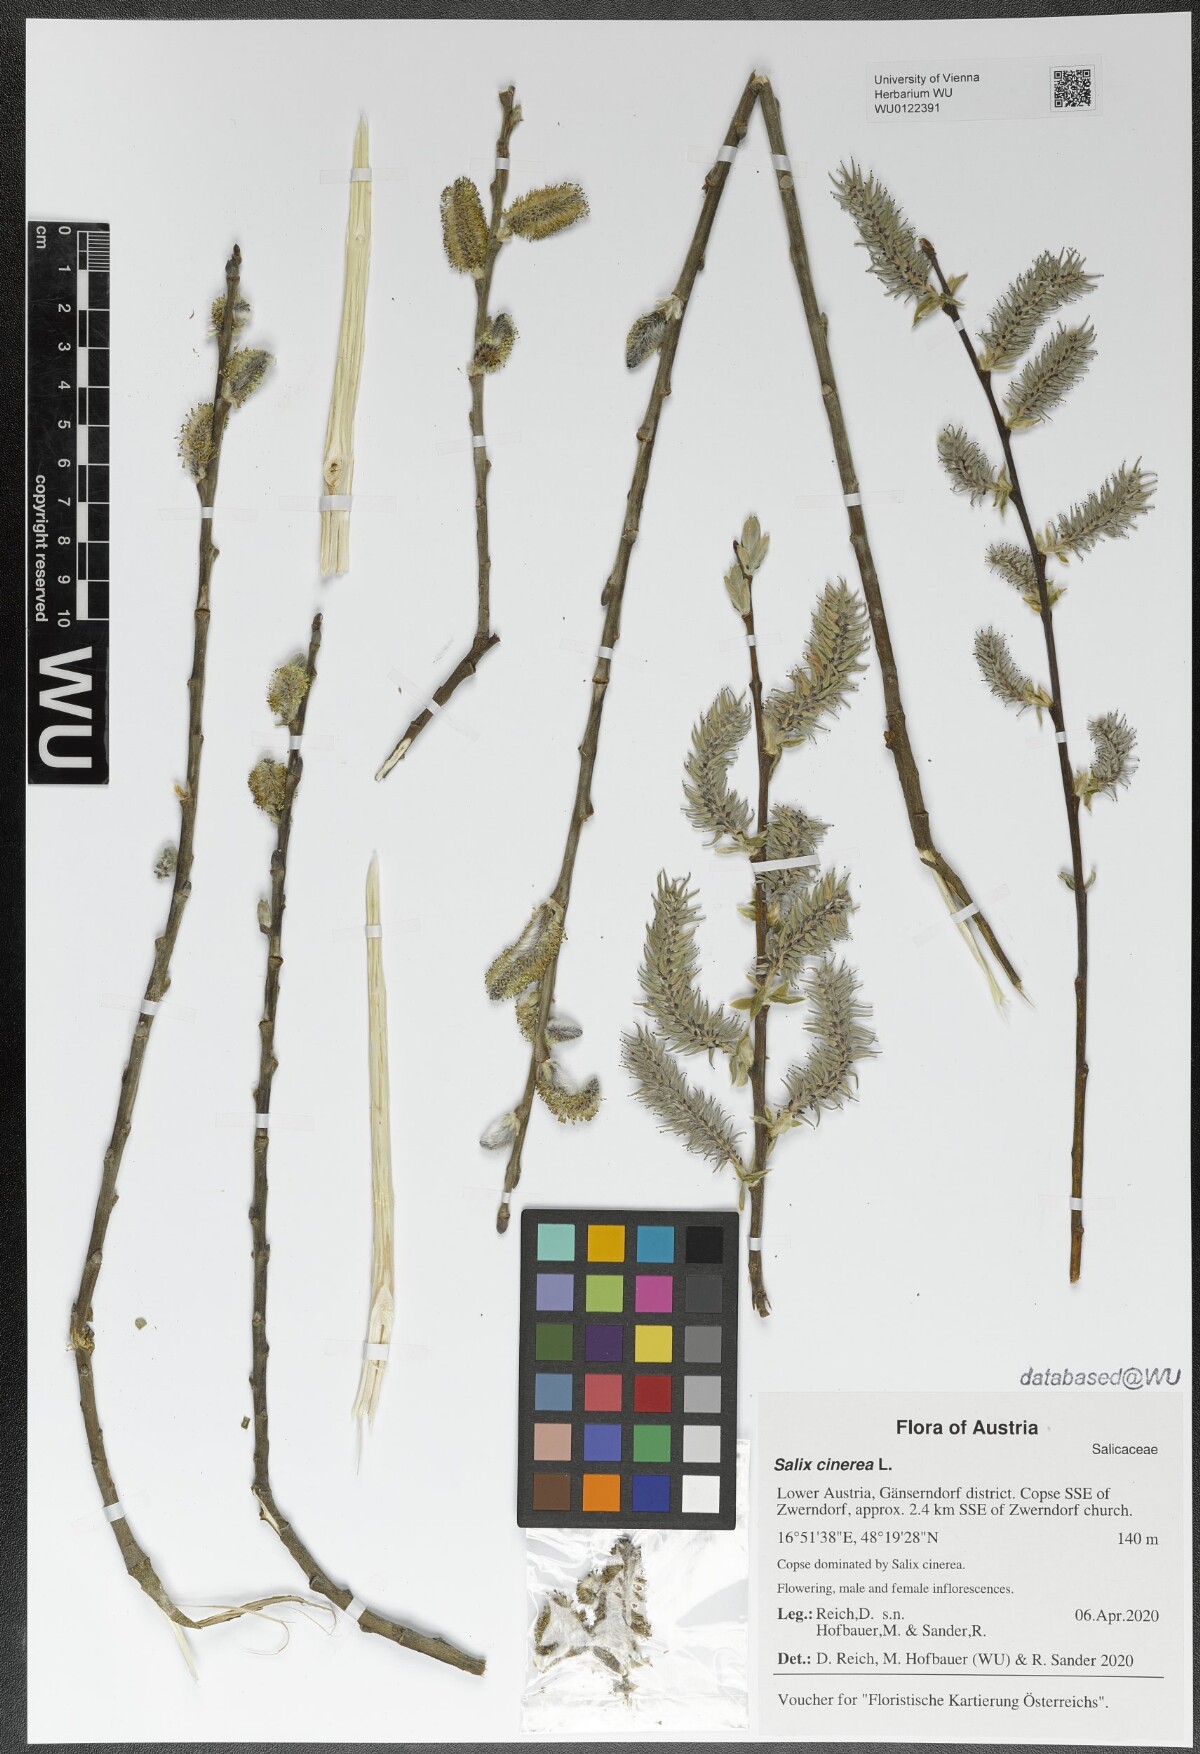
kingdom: Plantae
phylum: Tracheophyta
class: Magnoliopsida
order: Malpighiales
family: Salicaceae
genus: Salix
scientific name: Salix cinerea
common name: Common sallow
